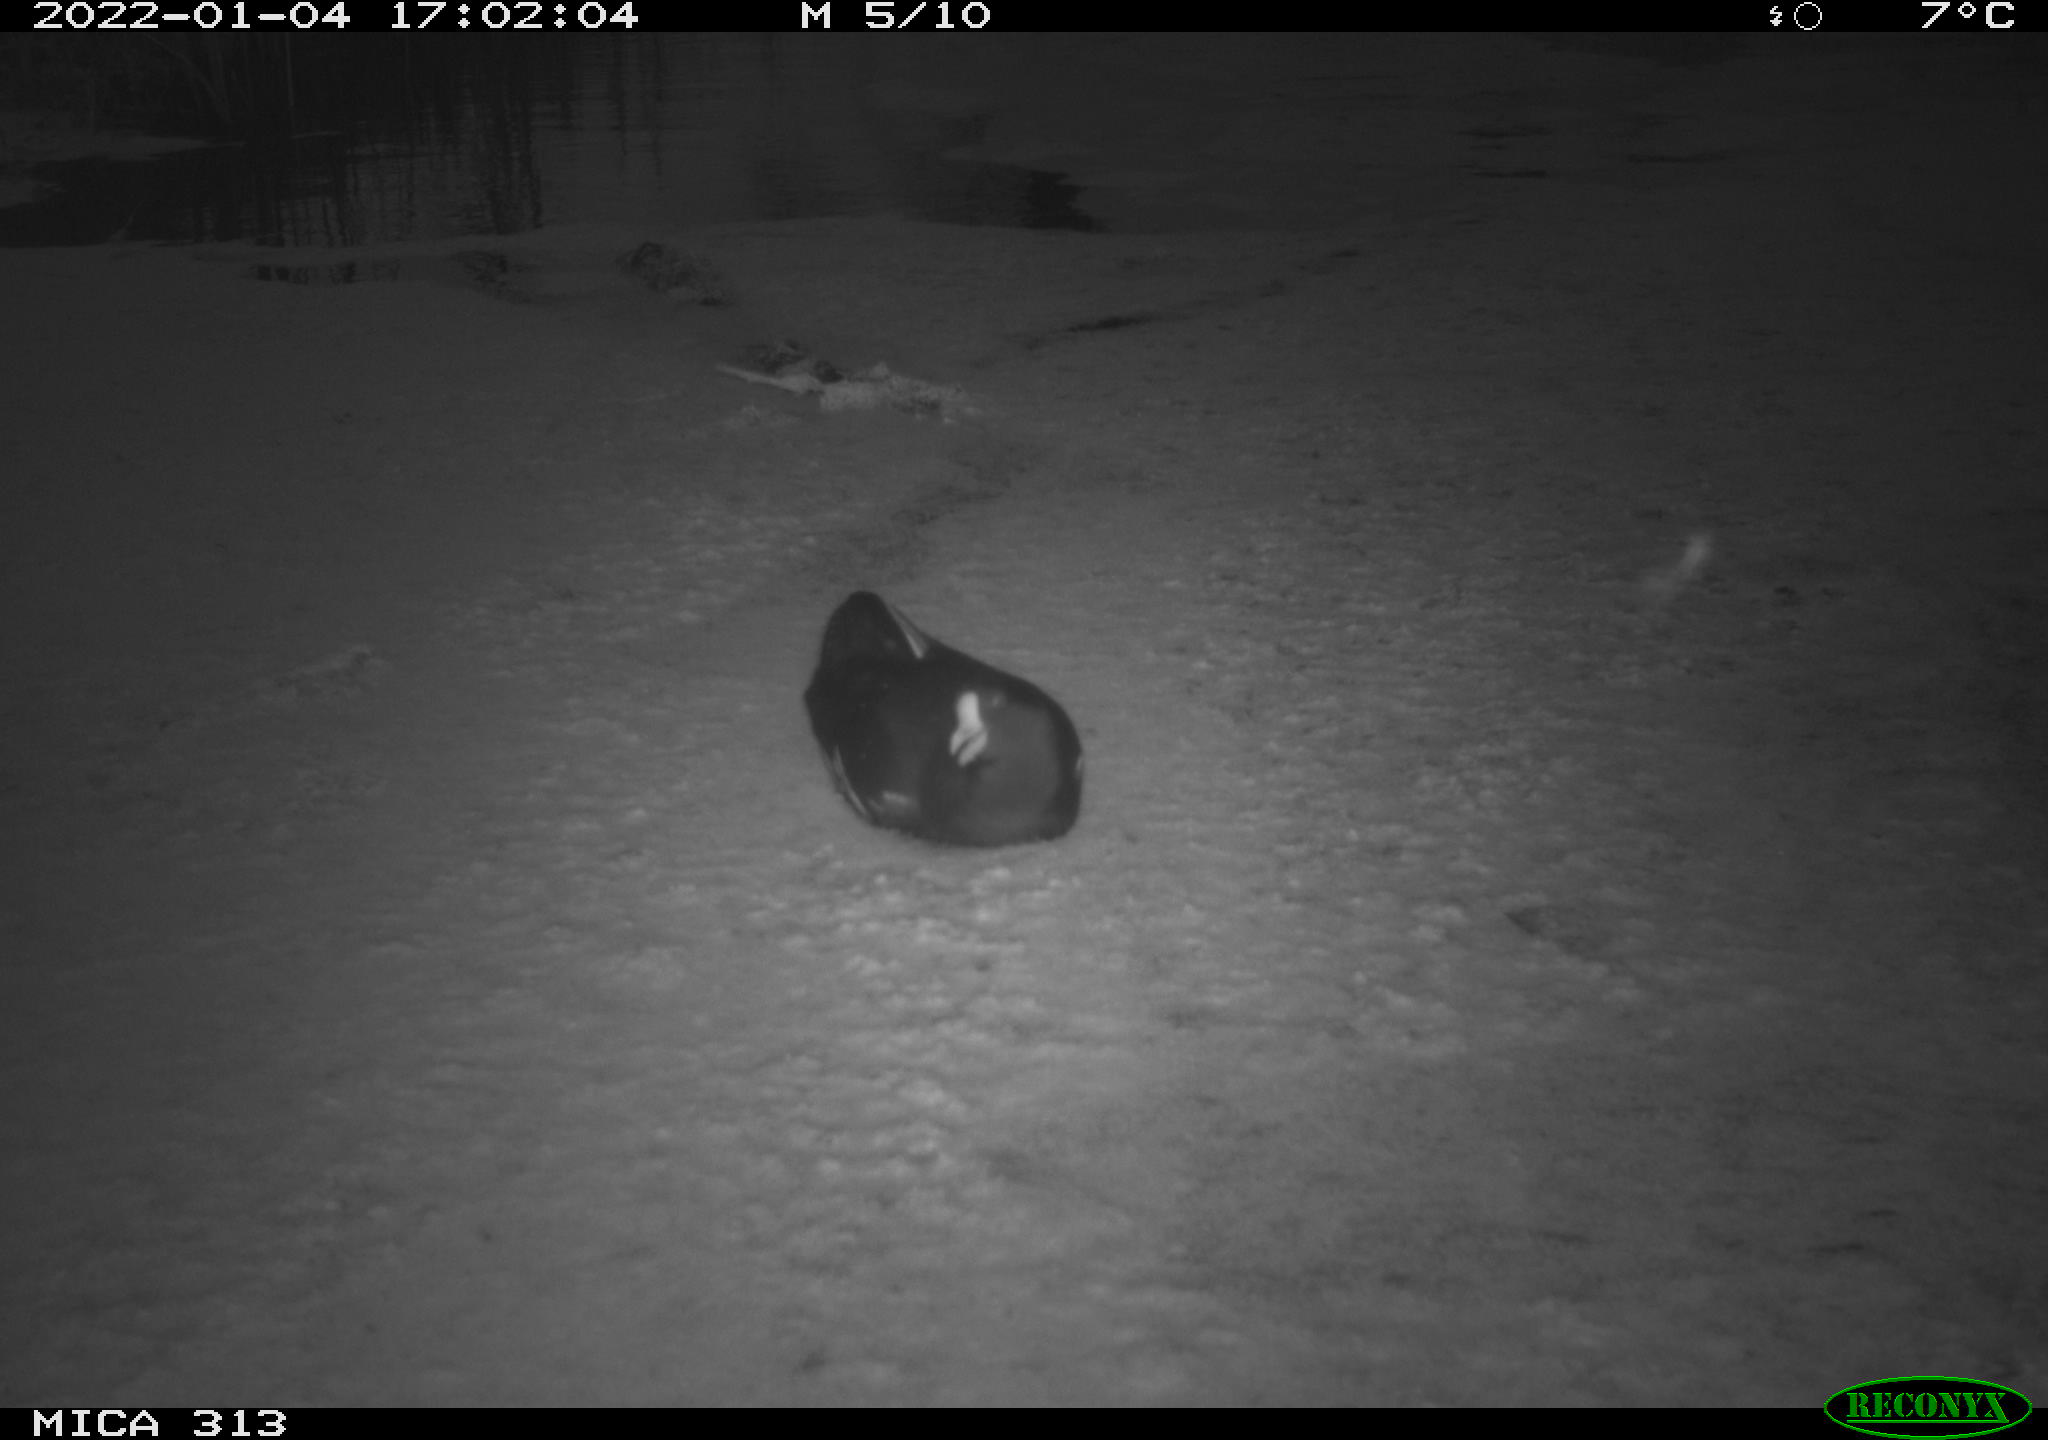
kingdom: Animalia
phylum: Chordata
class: Aves
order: Gruiformes
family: Rallidae
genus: Gallinula
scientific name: Gallinula chloropus
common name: Common moorhen
